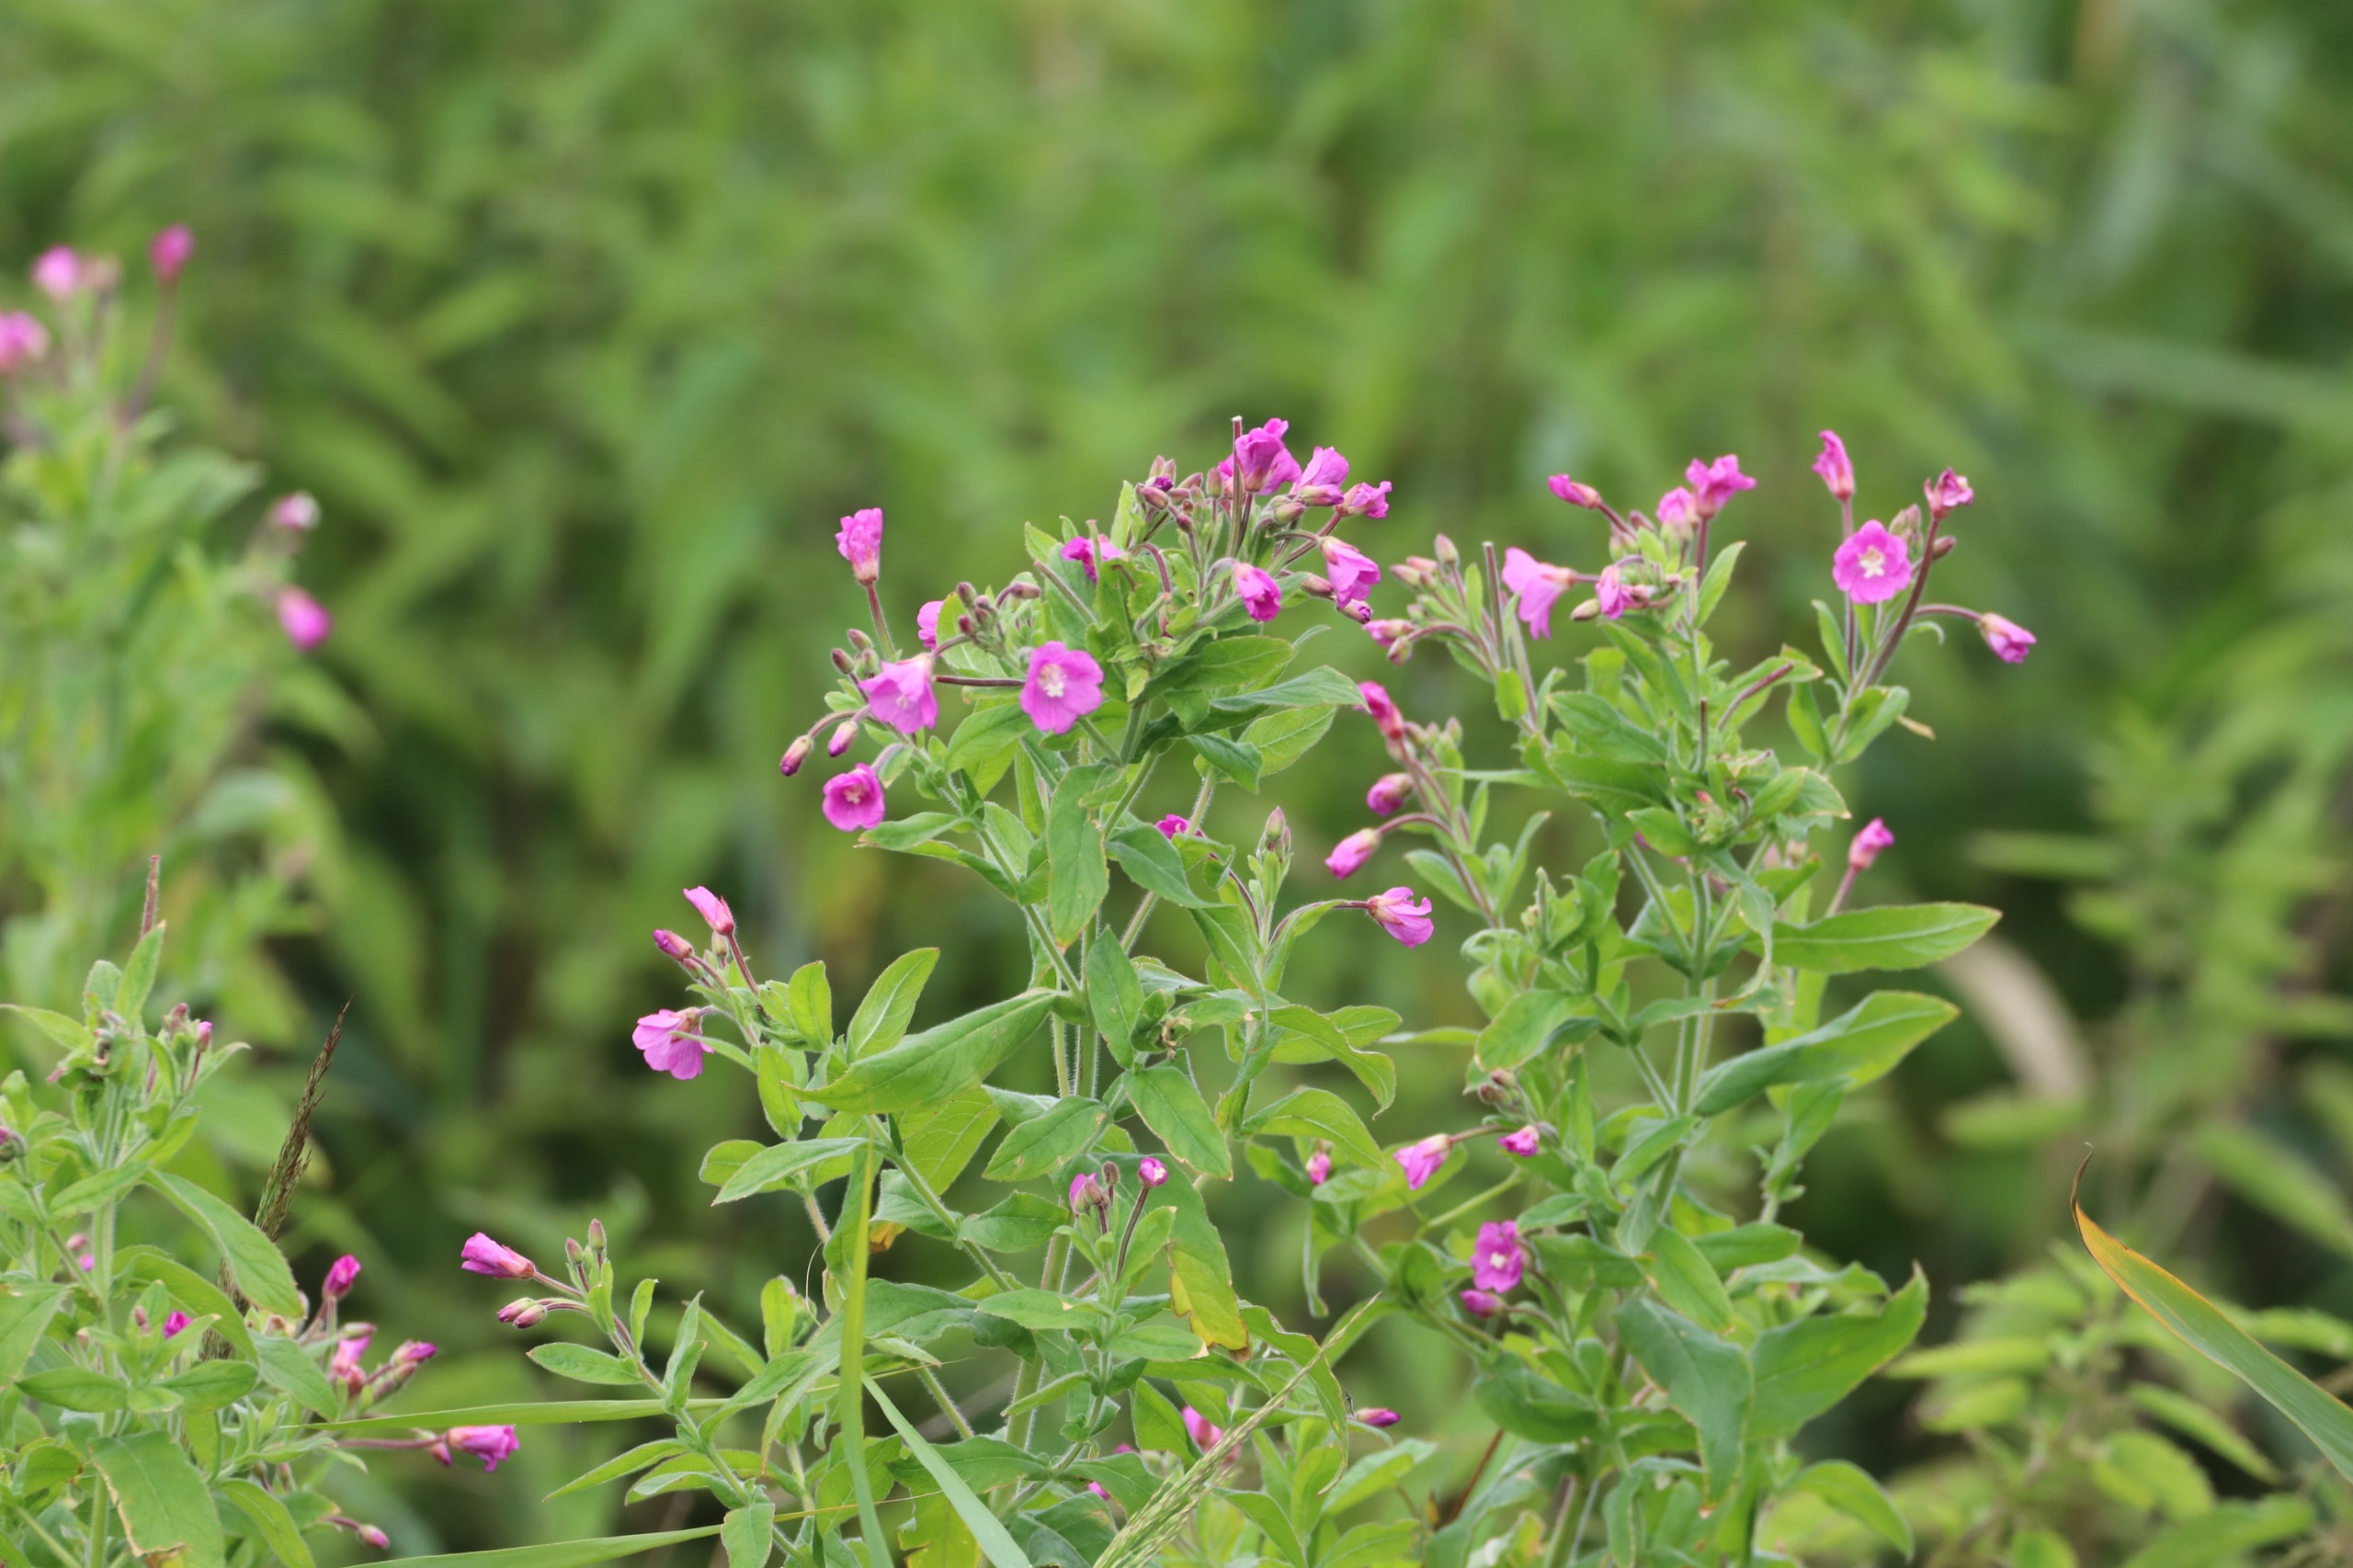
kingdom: Plantae
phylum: Tracheophyta
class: Magnoliopsida
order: Myrtales
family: Onagraceae
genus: Epilobium
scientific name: Epilobium hirsutum
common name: Lådden dueurt
